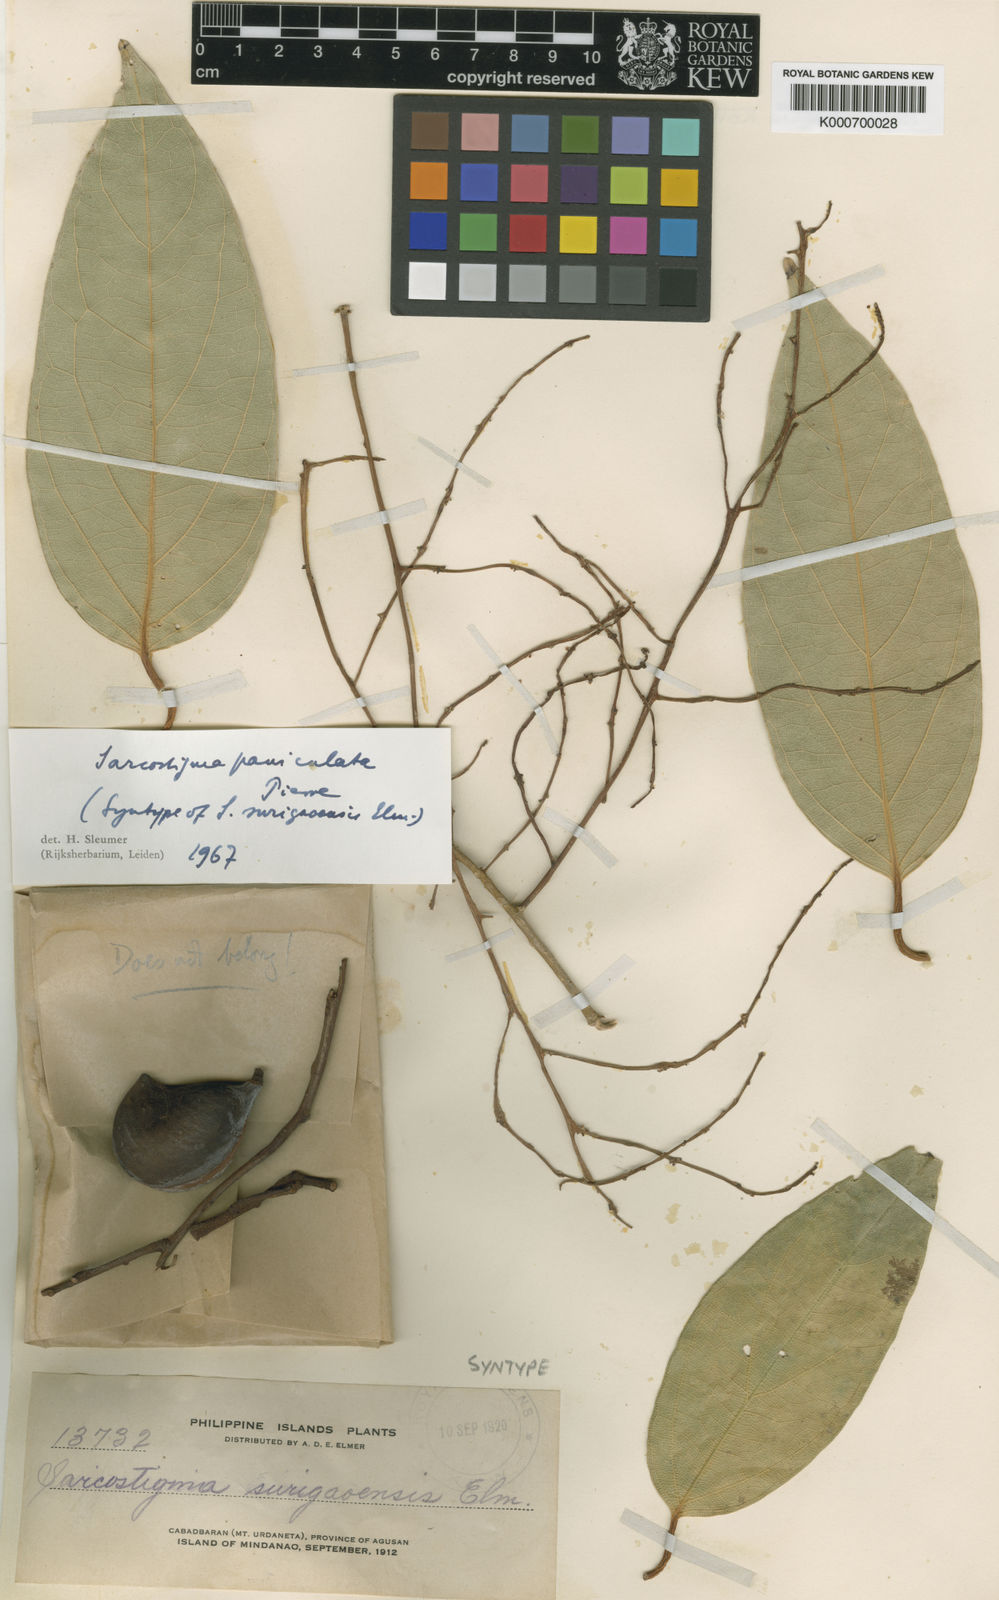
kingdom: Plantae
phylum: Tracheophyta
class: Magnoliopsida
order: Icacinales
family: Icacinaceae
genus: Sarcostigma
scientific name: Sarcostigma paniculata
